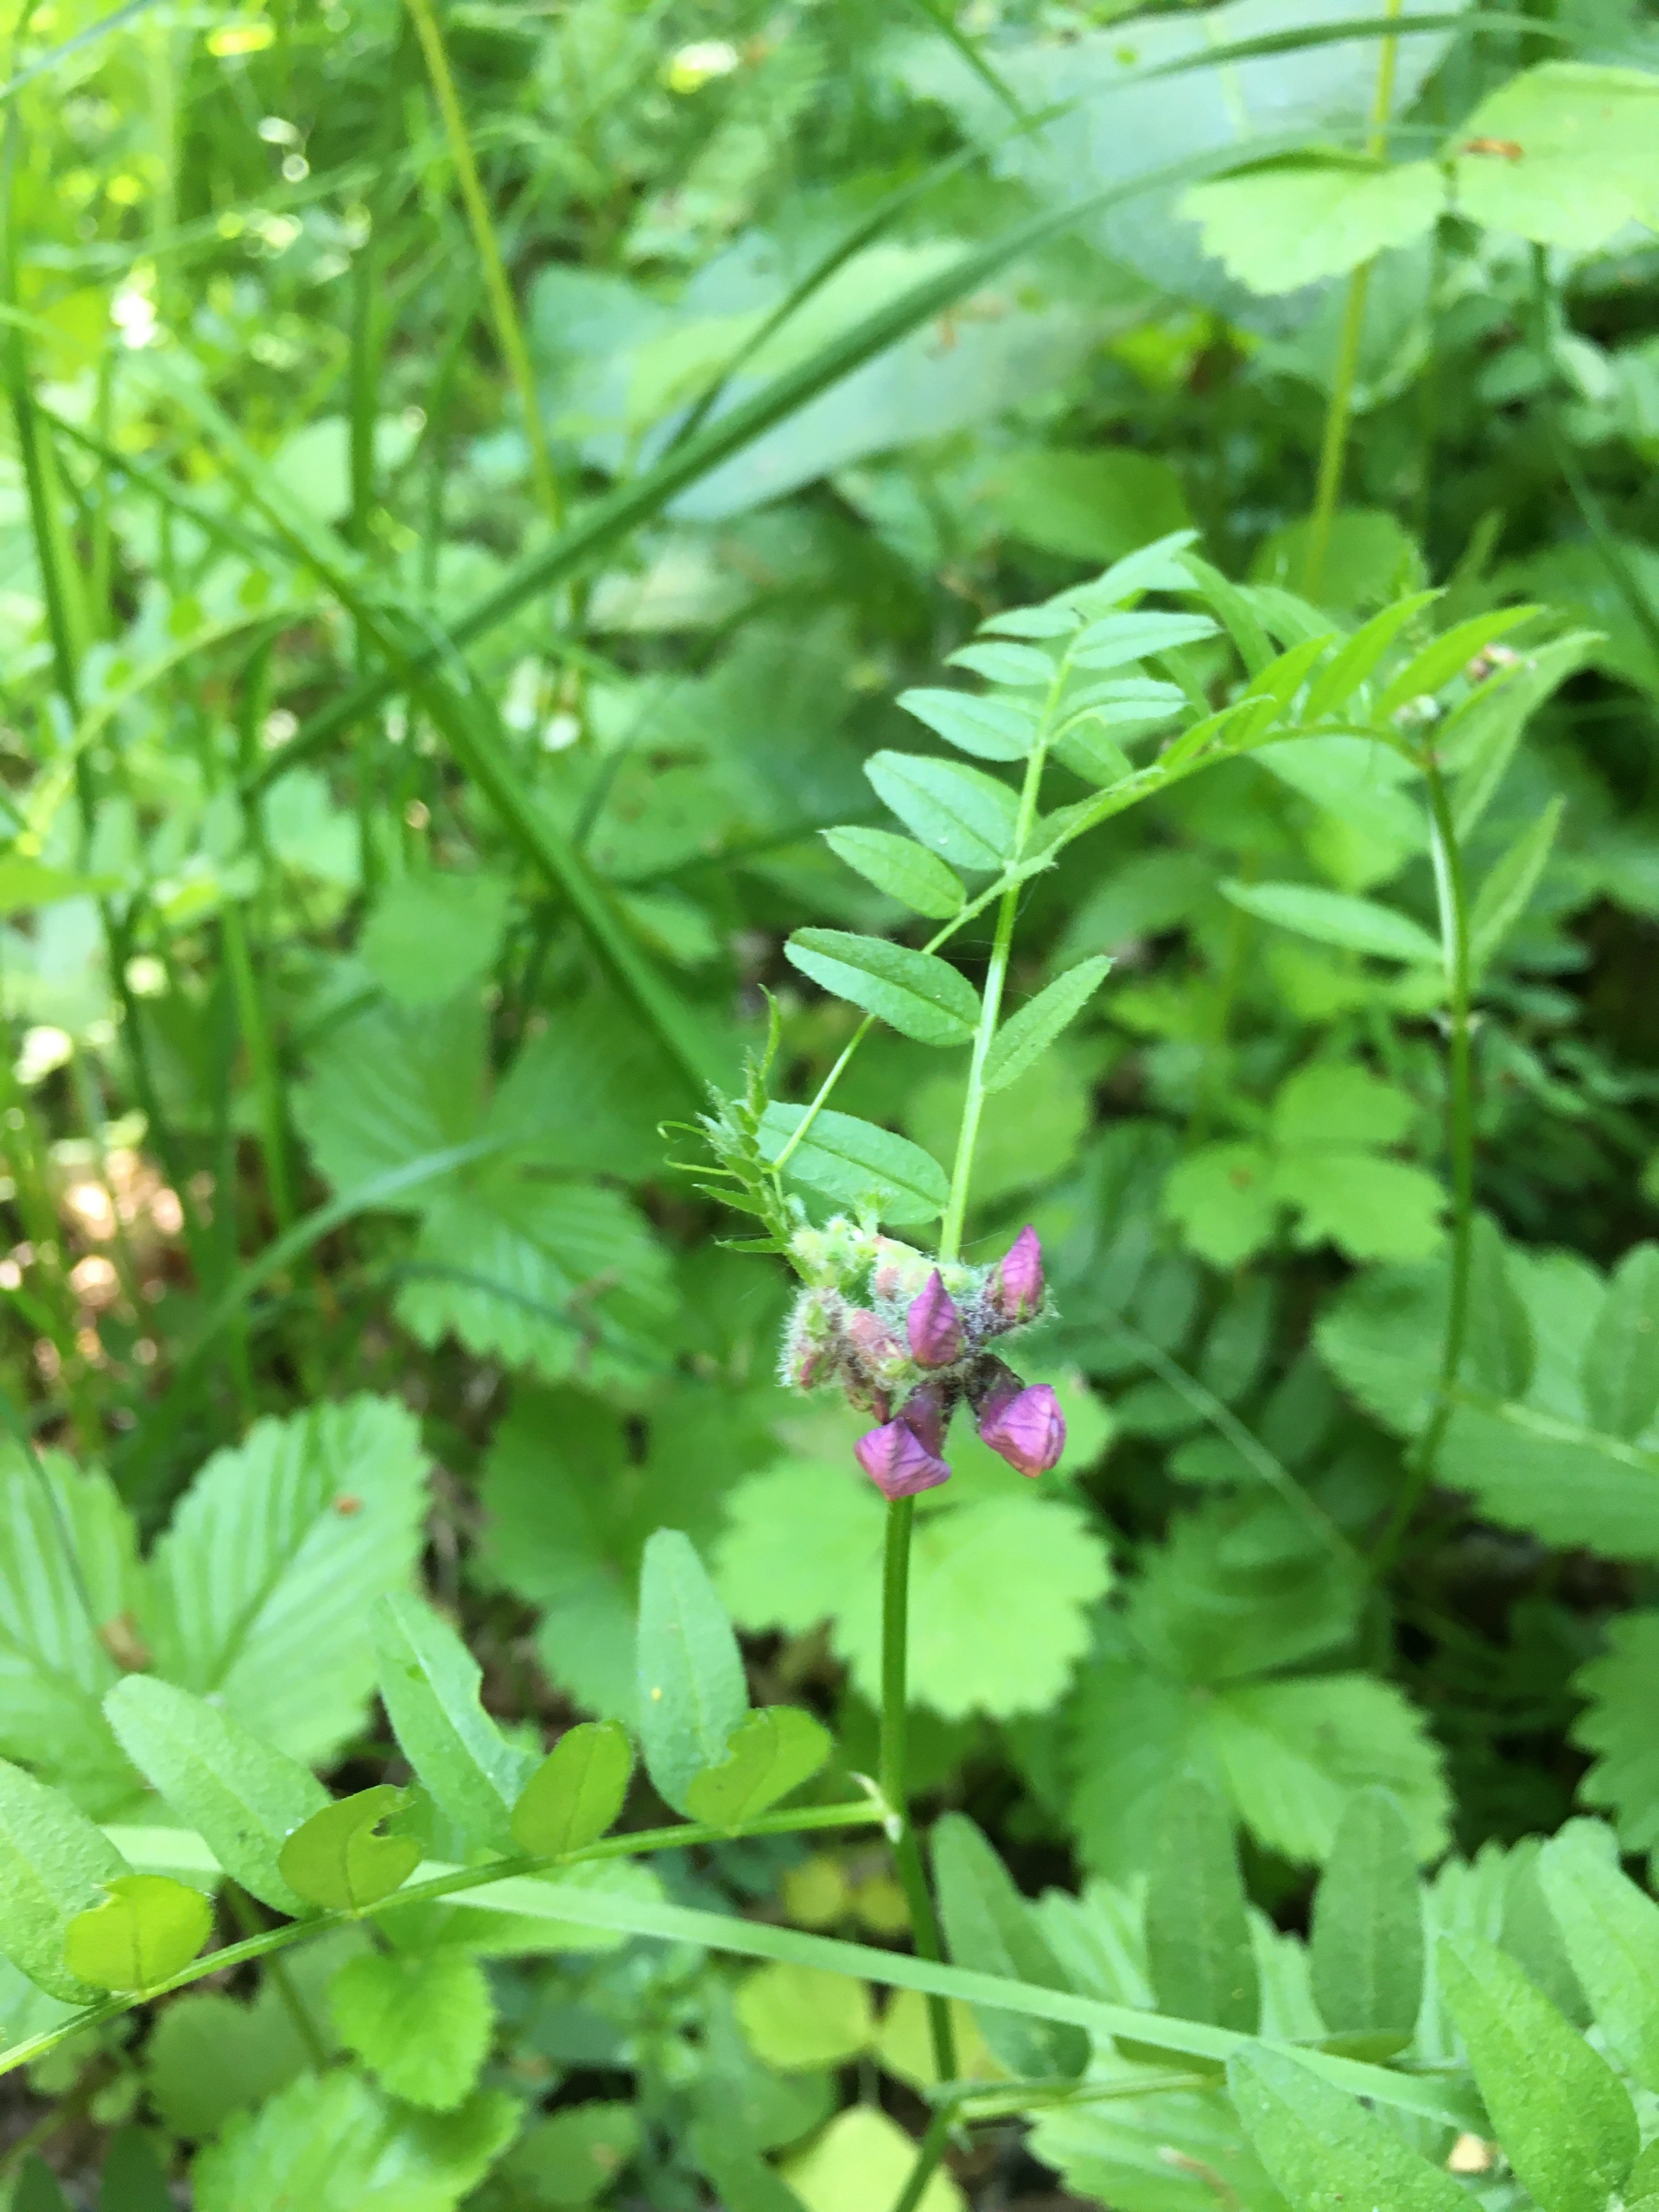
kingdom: Plantae
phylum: Tracheophyta
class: Magnoliopsida
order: Fabales
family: Fabaceae
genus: Vicia
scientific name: Vicia sepium
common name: Gærde-vikke
